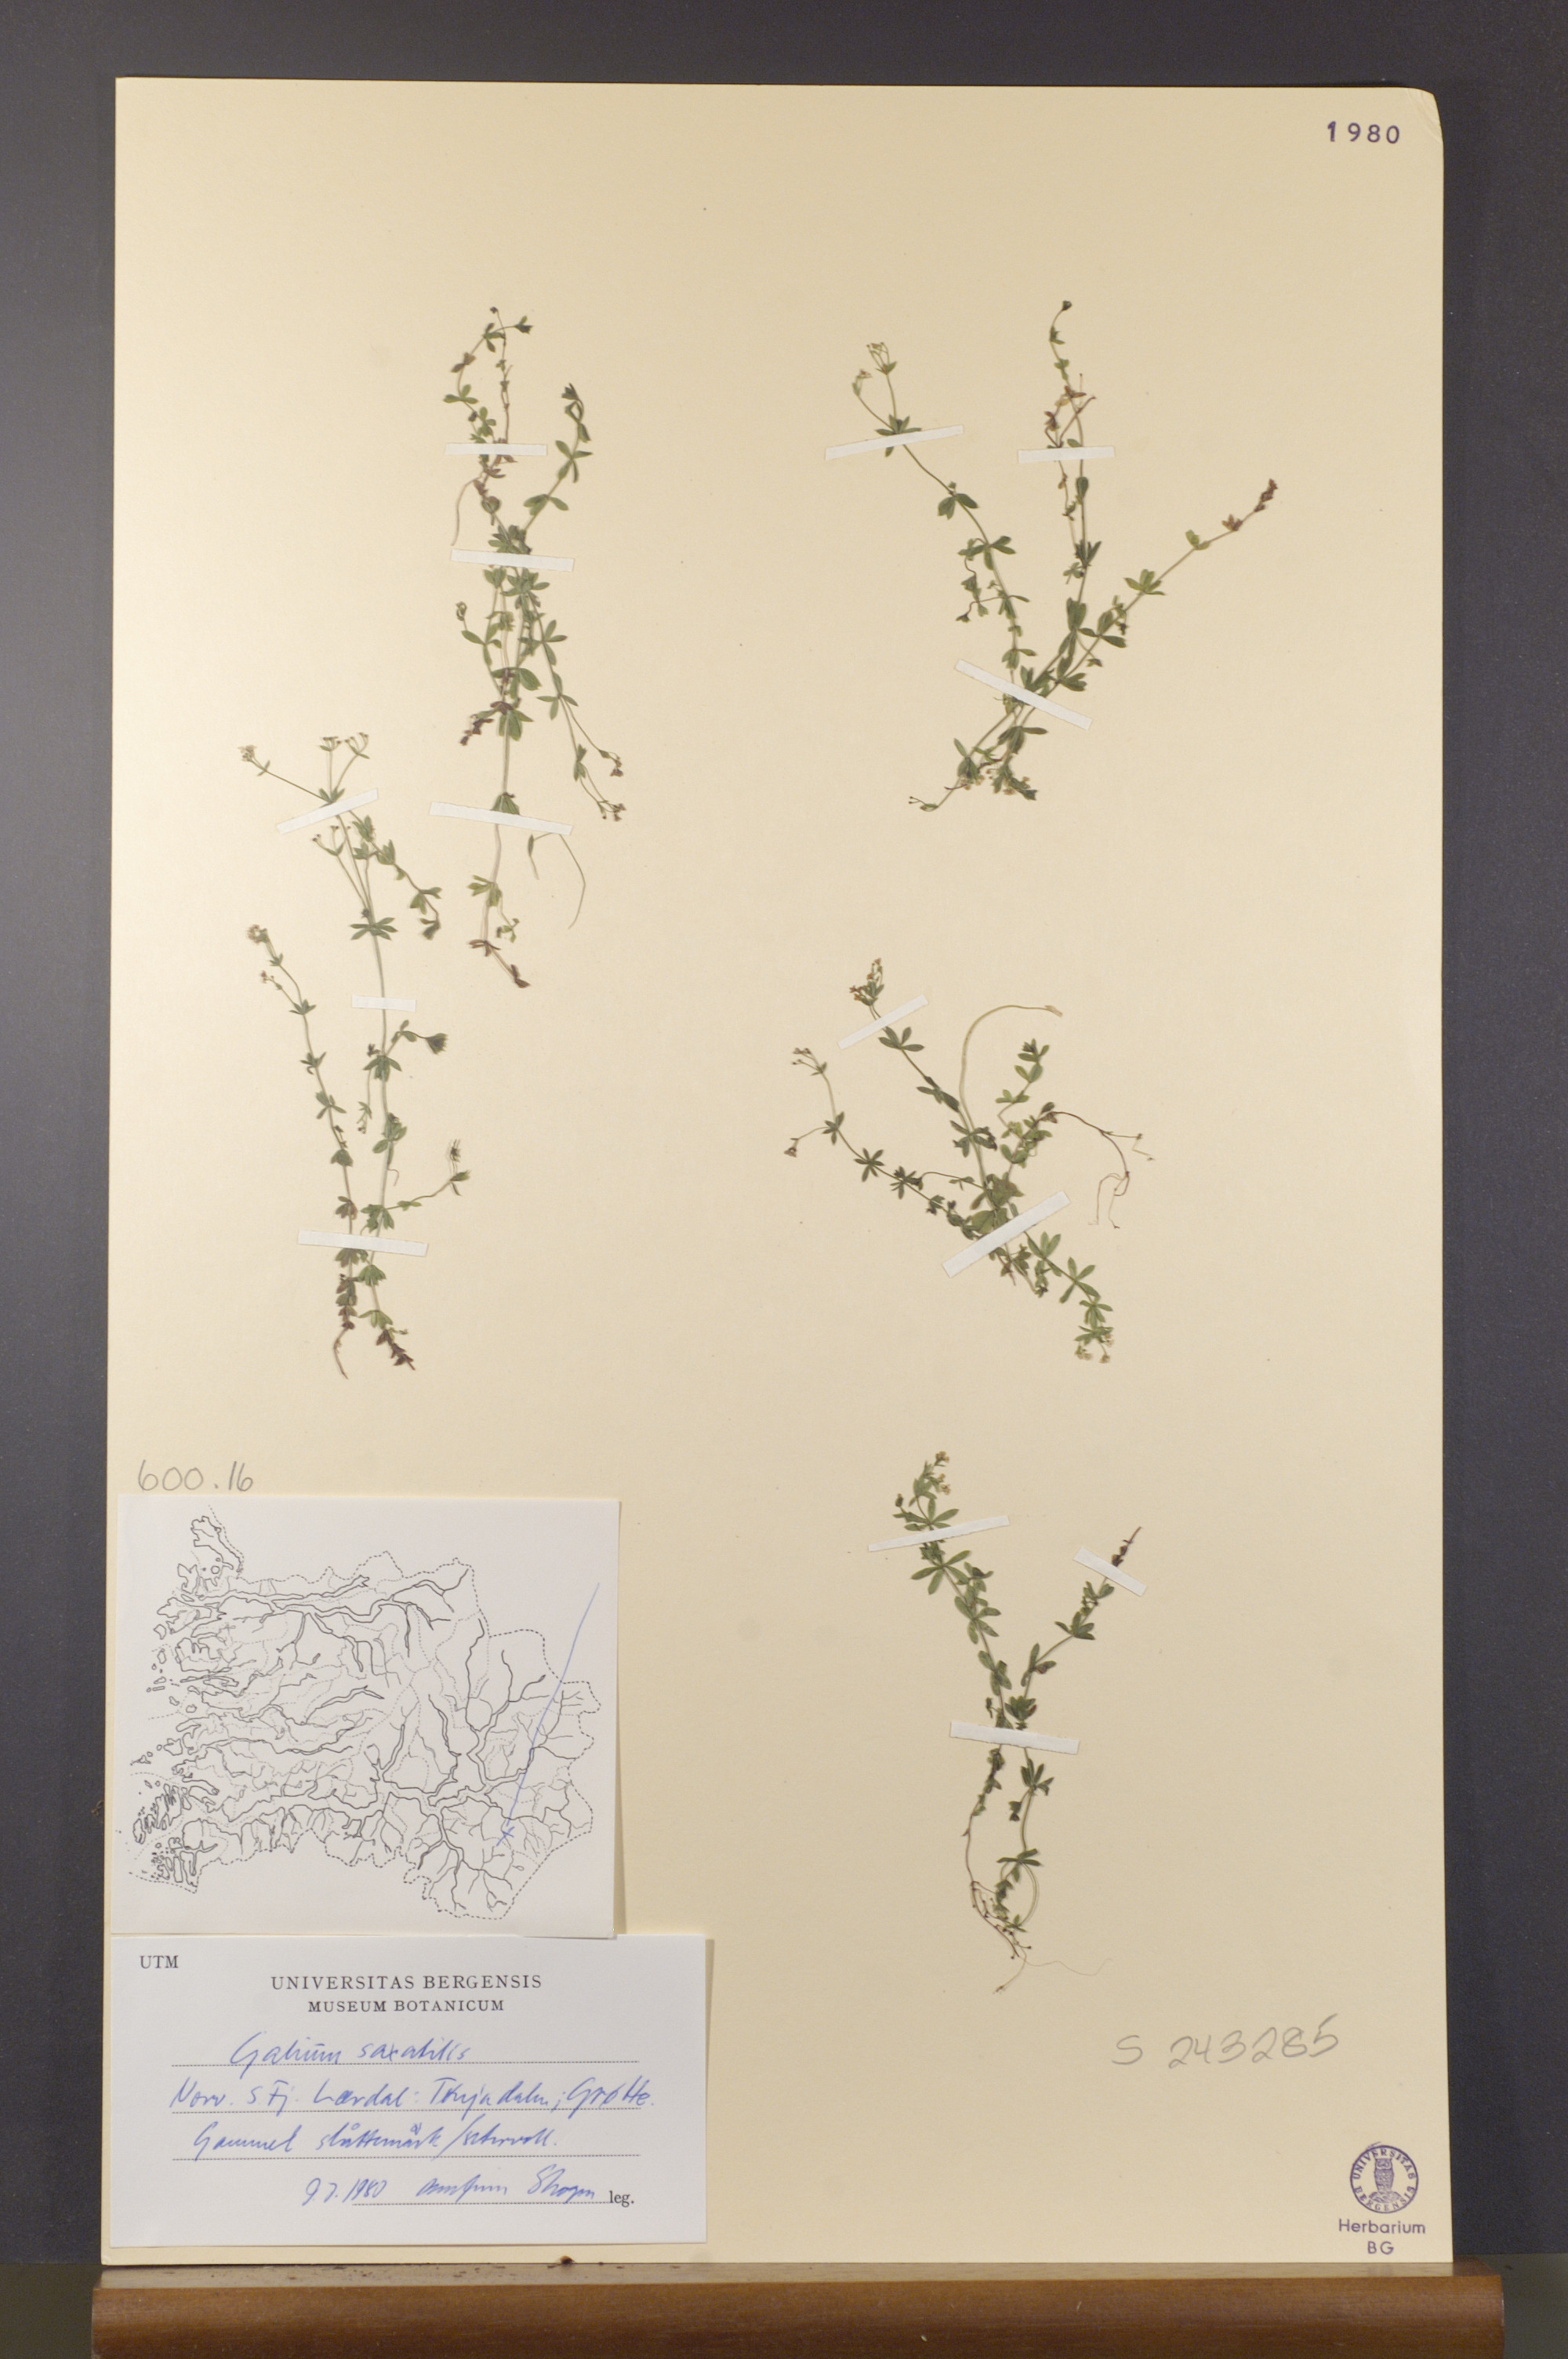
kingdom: Plantae
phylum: Tracheophyta
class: Magnoliopsida
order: Gentianales
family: Rubiaceae
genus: Galium
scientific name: Galium saxatile
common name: Heath bedstraw
